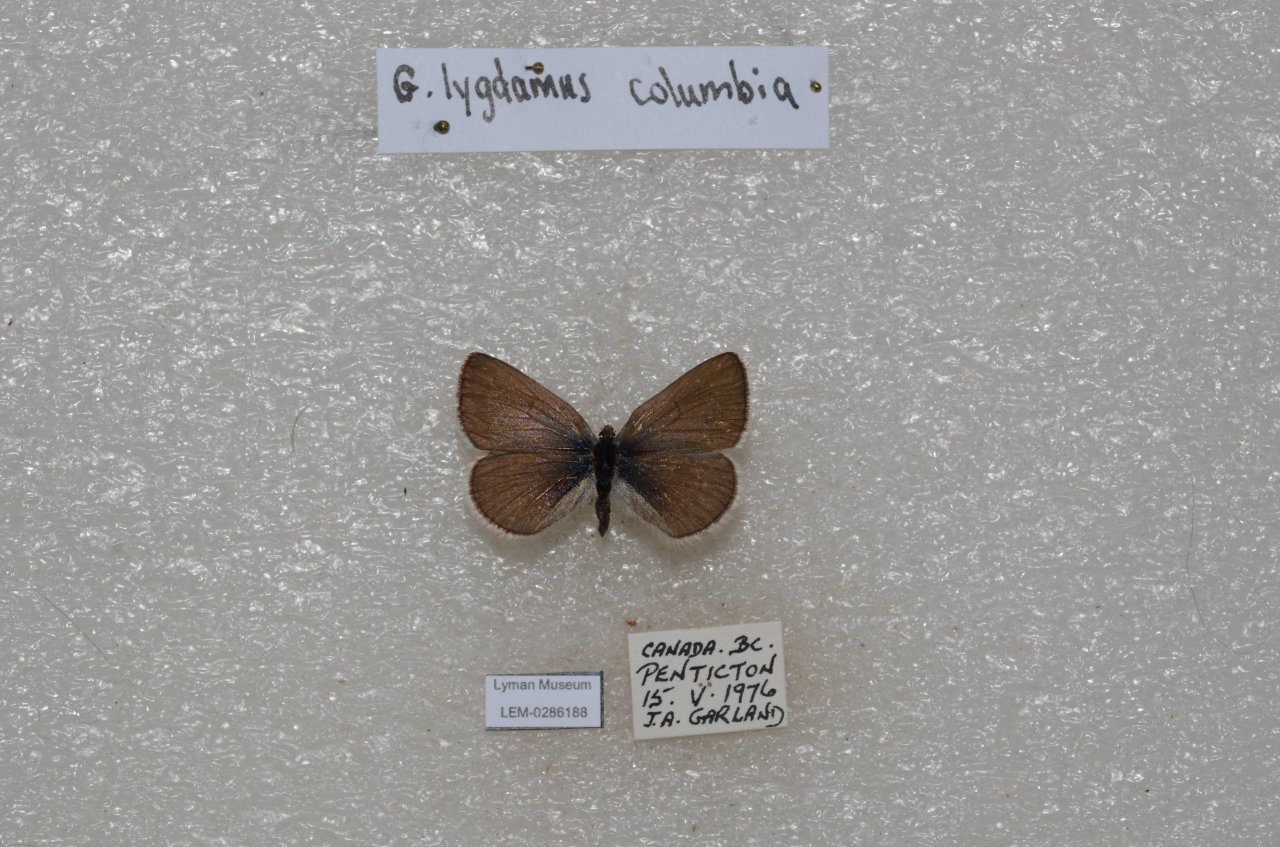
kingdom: Animalia
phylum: Arthropoda
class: Insecta
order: Lepidoptera
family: Lycaenidae
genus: Glaucopsyche
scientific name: Glaucopsyche lygdamus
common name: Silvery Blue
